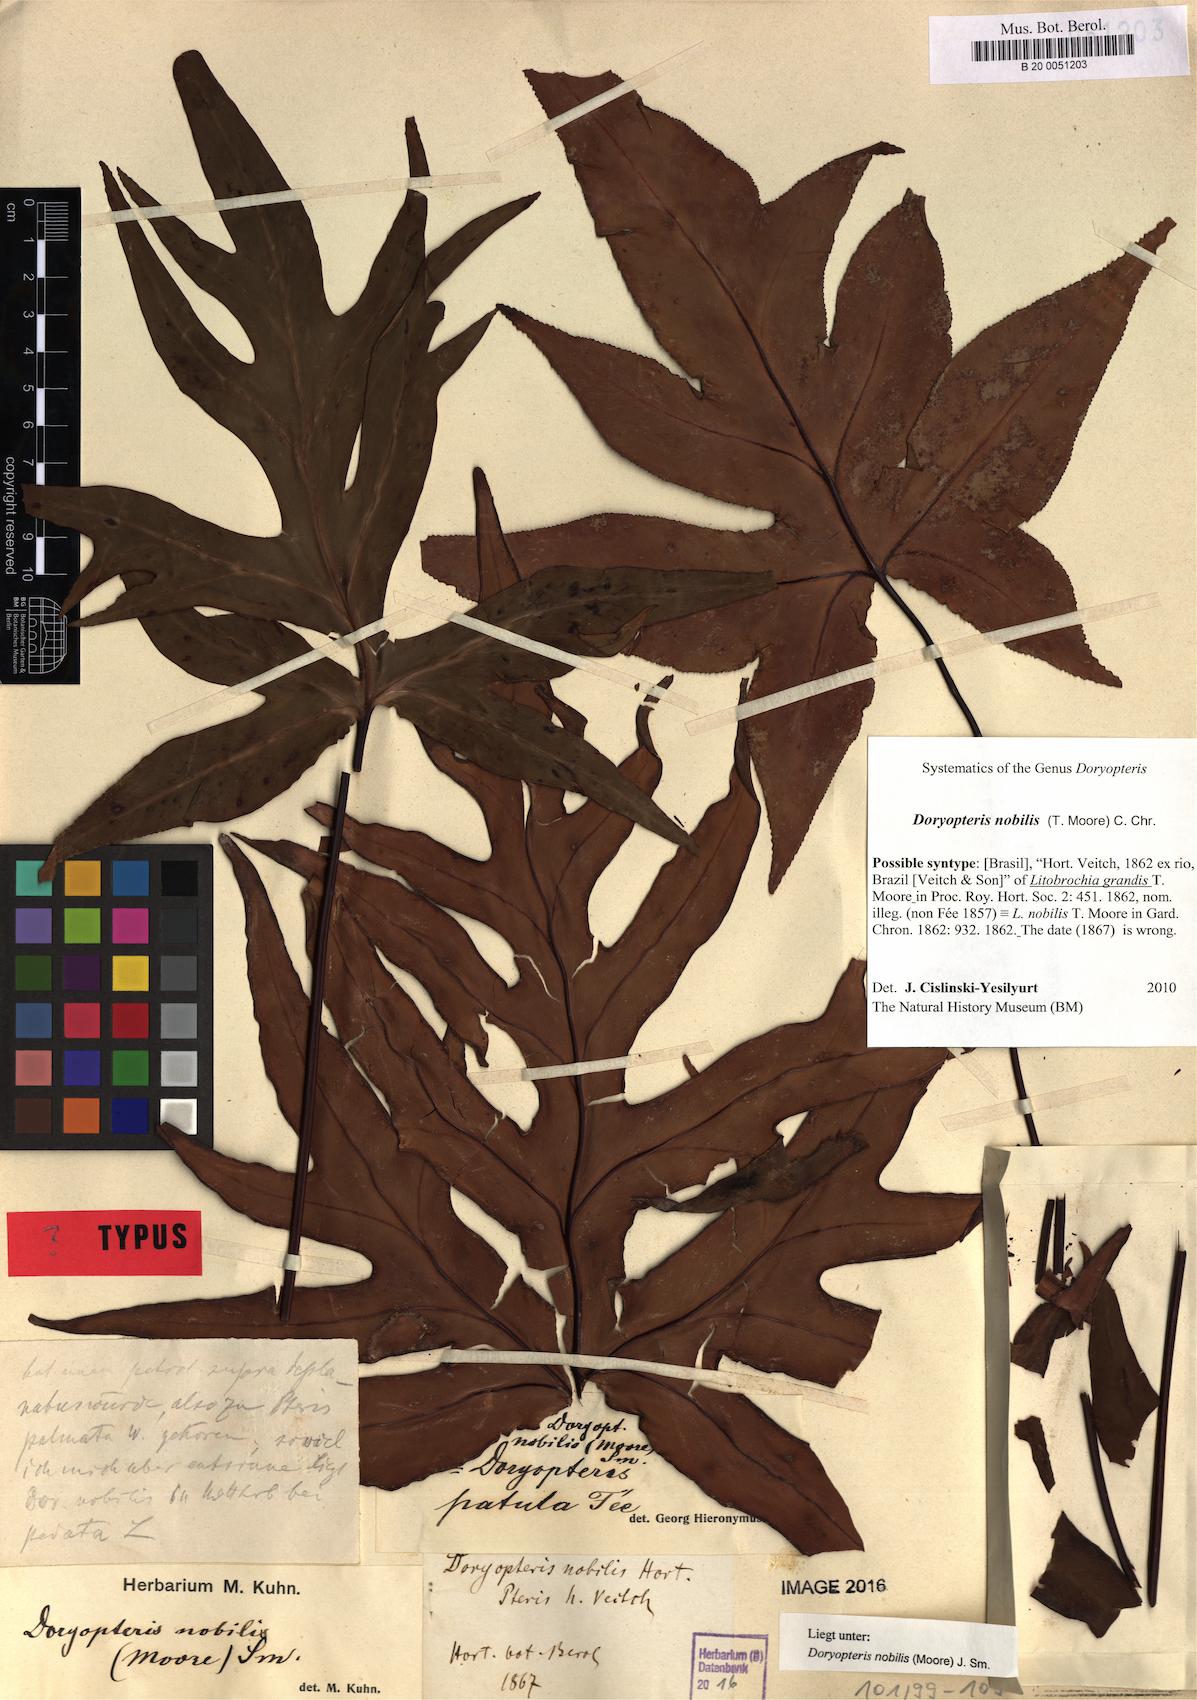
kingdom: Plantae
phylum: Tracheophyta
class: Polypodiopsida
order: Polypodiales
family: Pteridaceae
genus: Doryopteris
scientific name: Doryopteris nobilis
